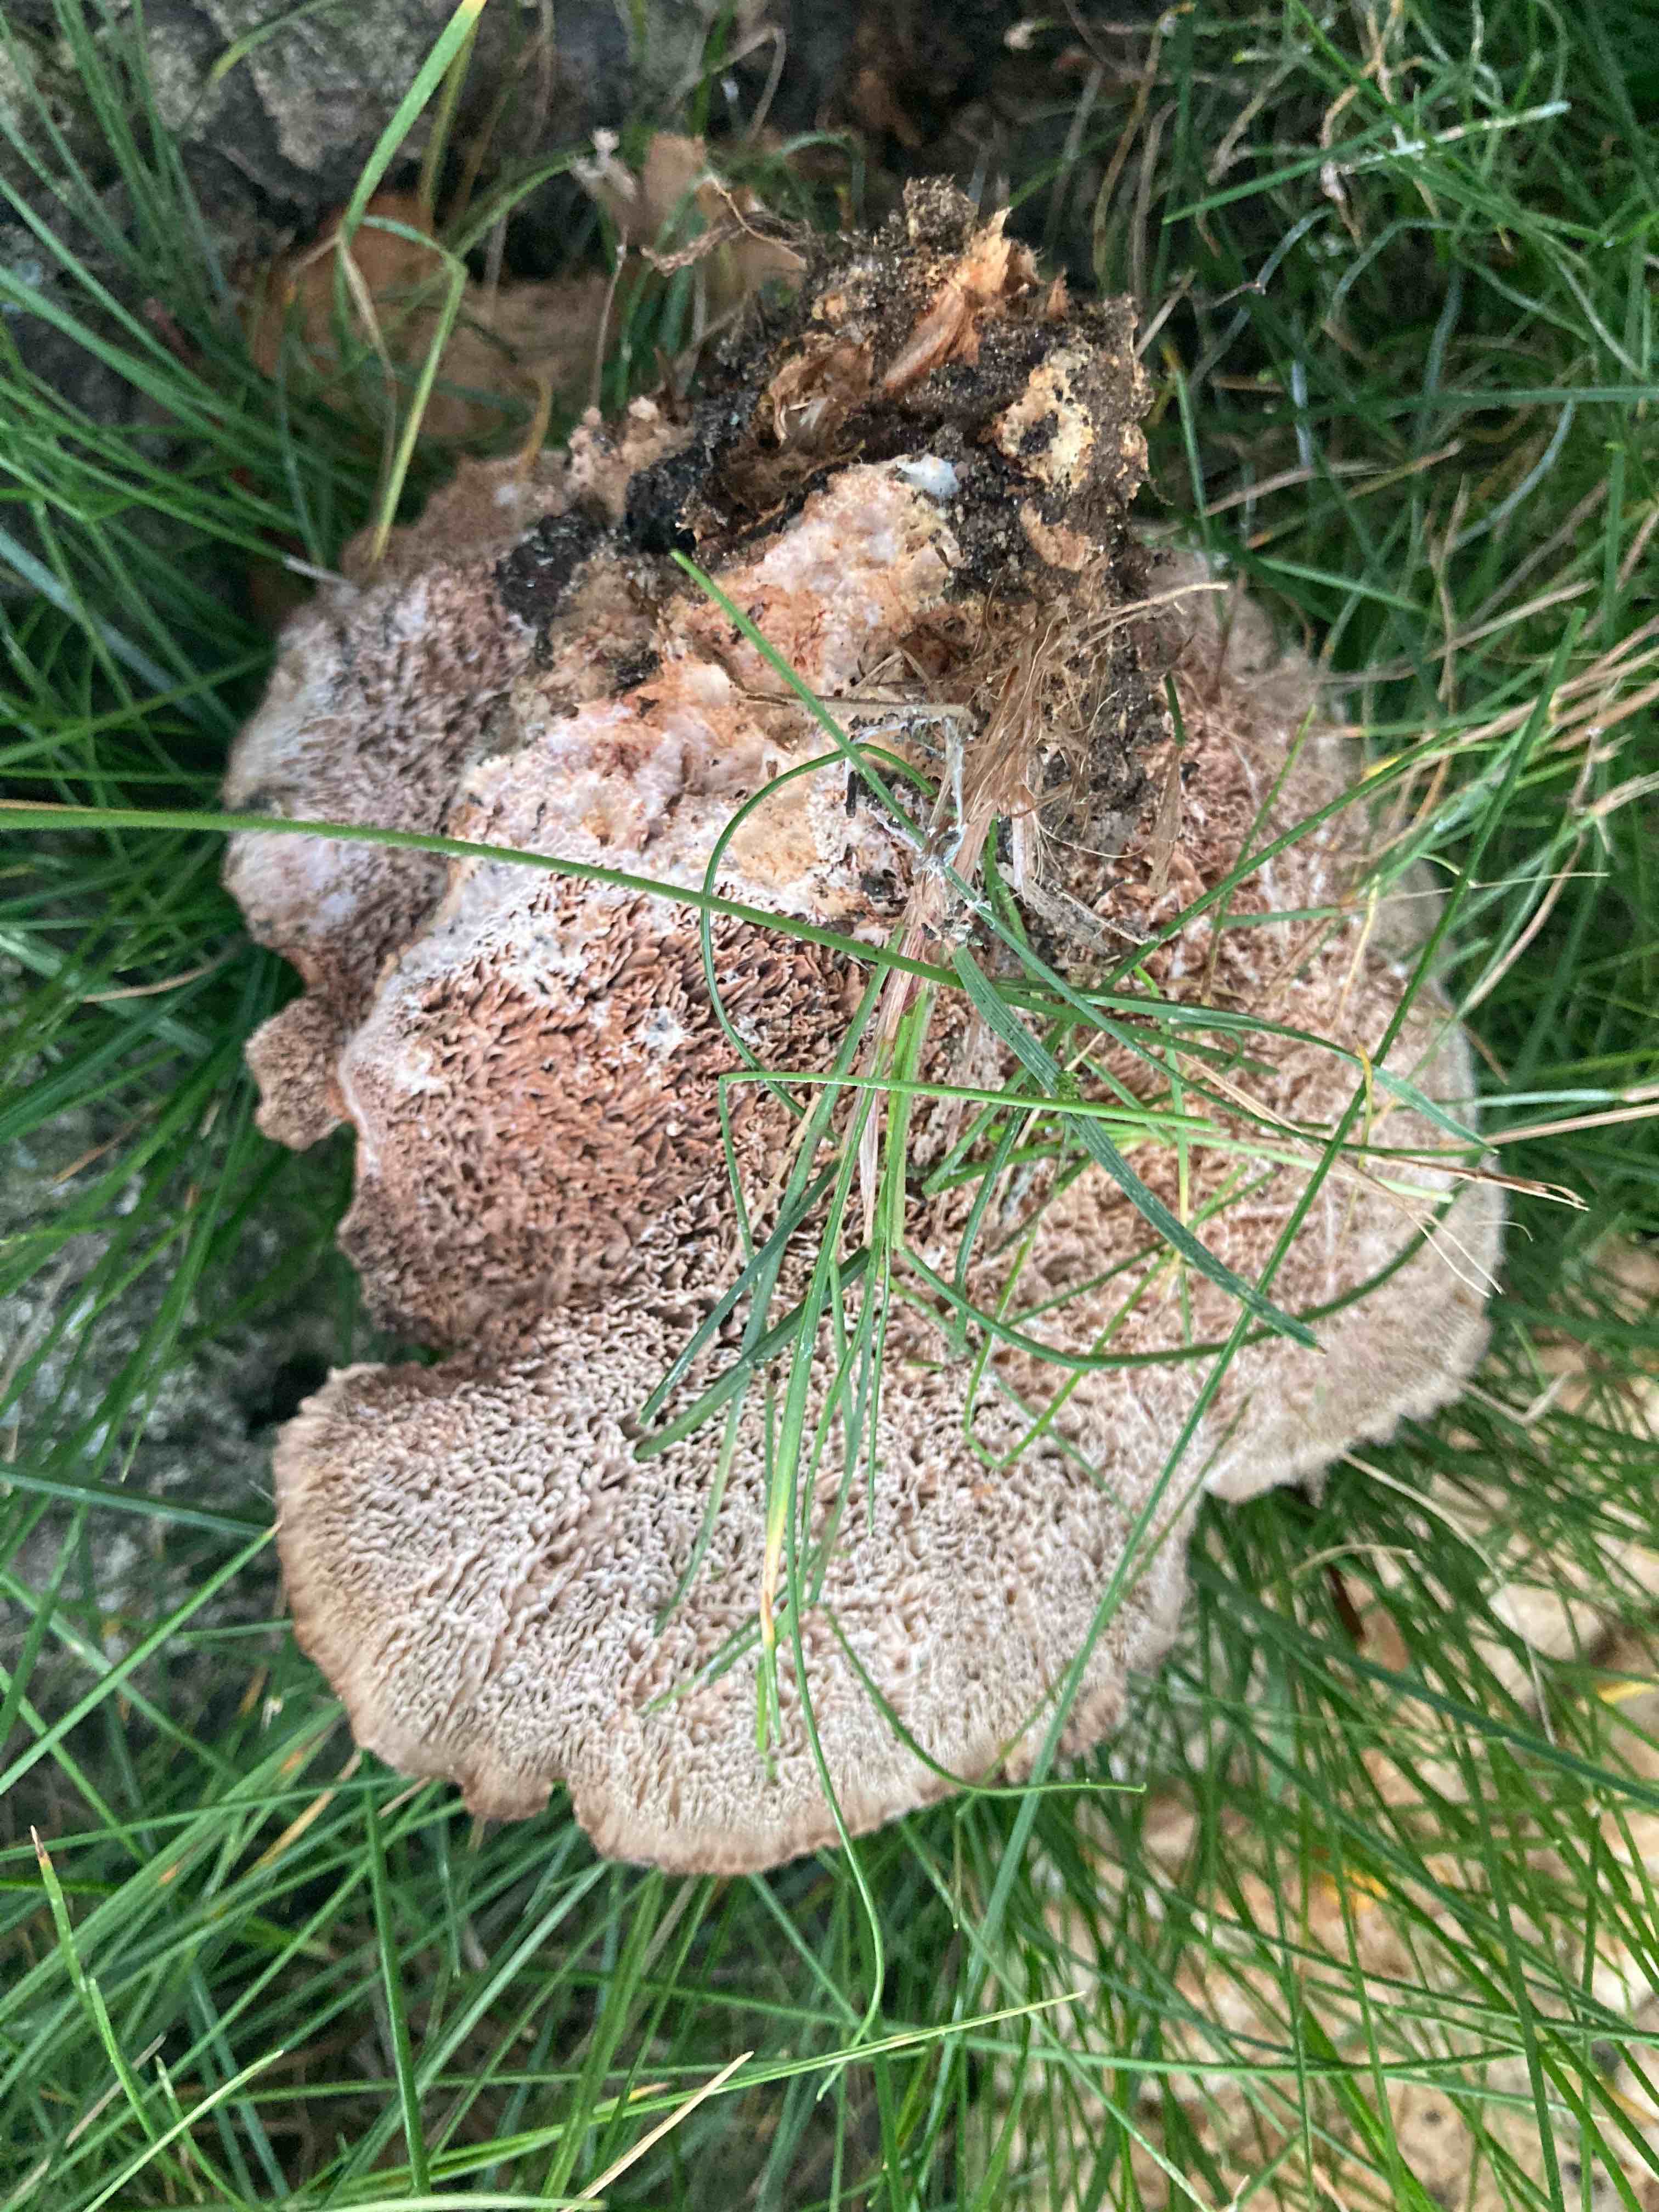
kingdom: Fungi
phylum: Basidiomycota
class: Agaricomycetes
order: Polyporales
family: Podoscyphaceae
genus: Abortiporus
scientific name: Abortiporus biennis
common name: rødmende pjalteporesvamp
